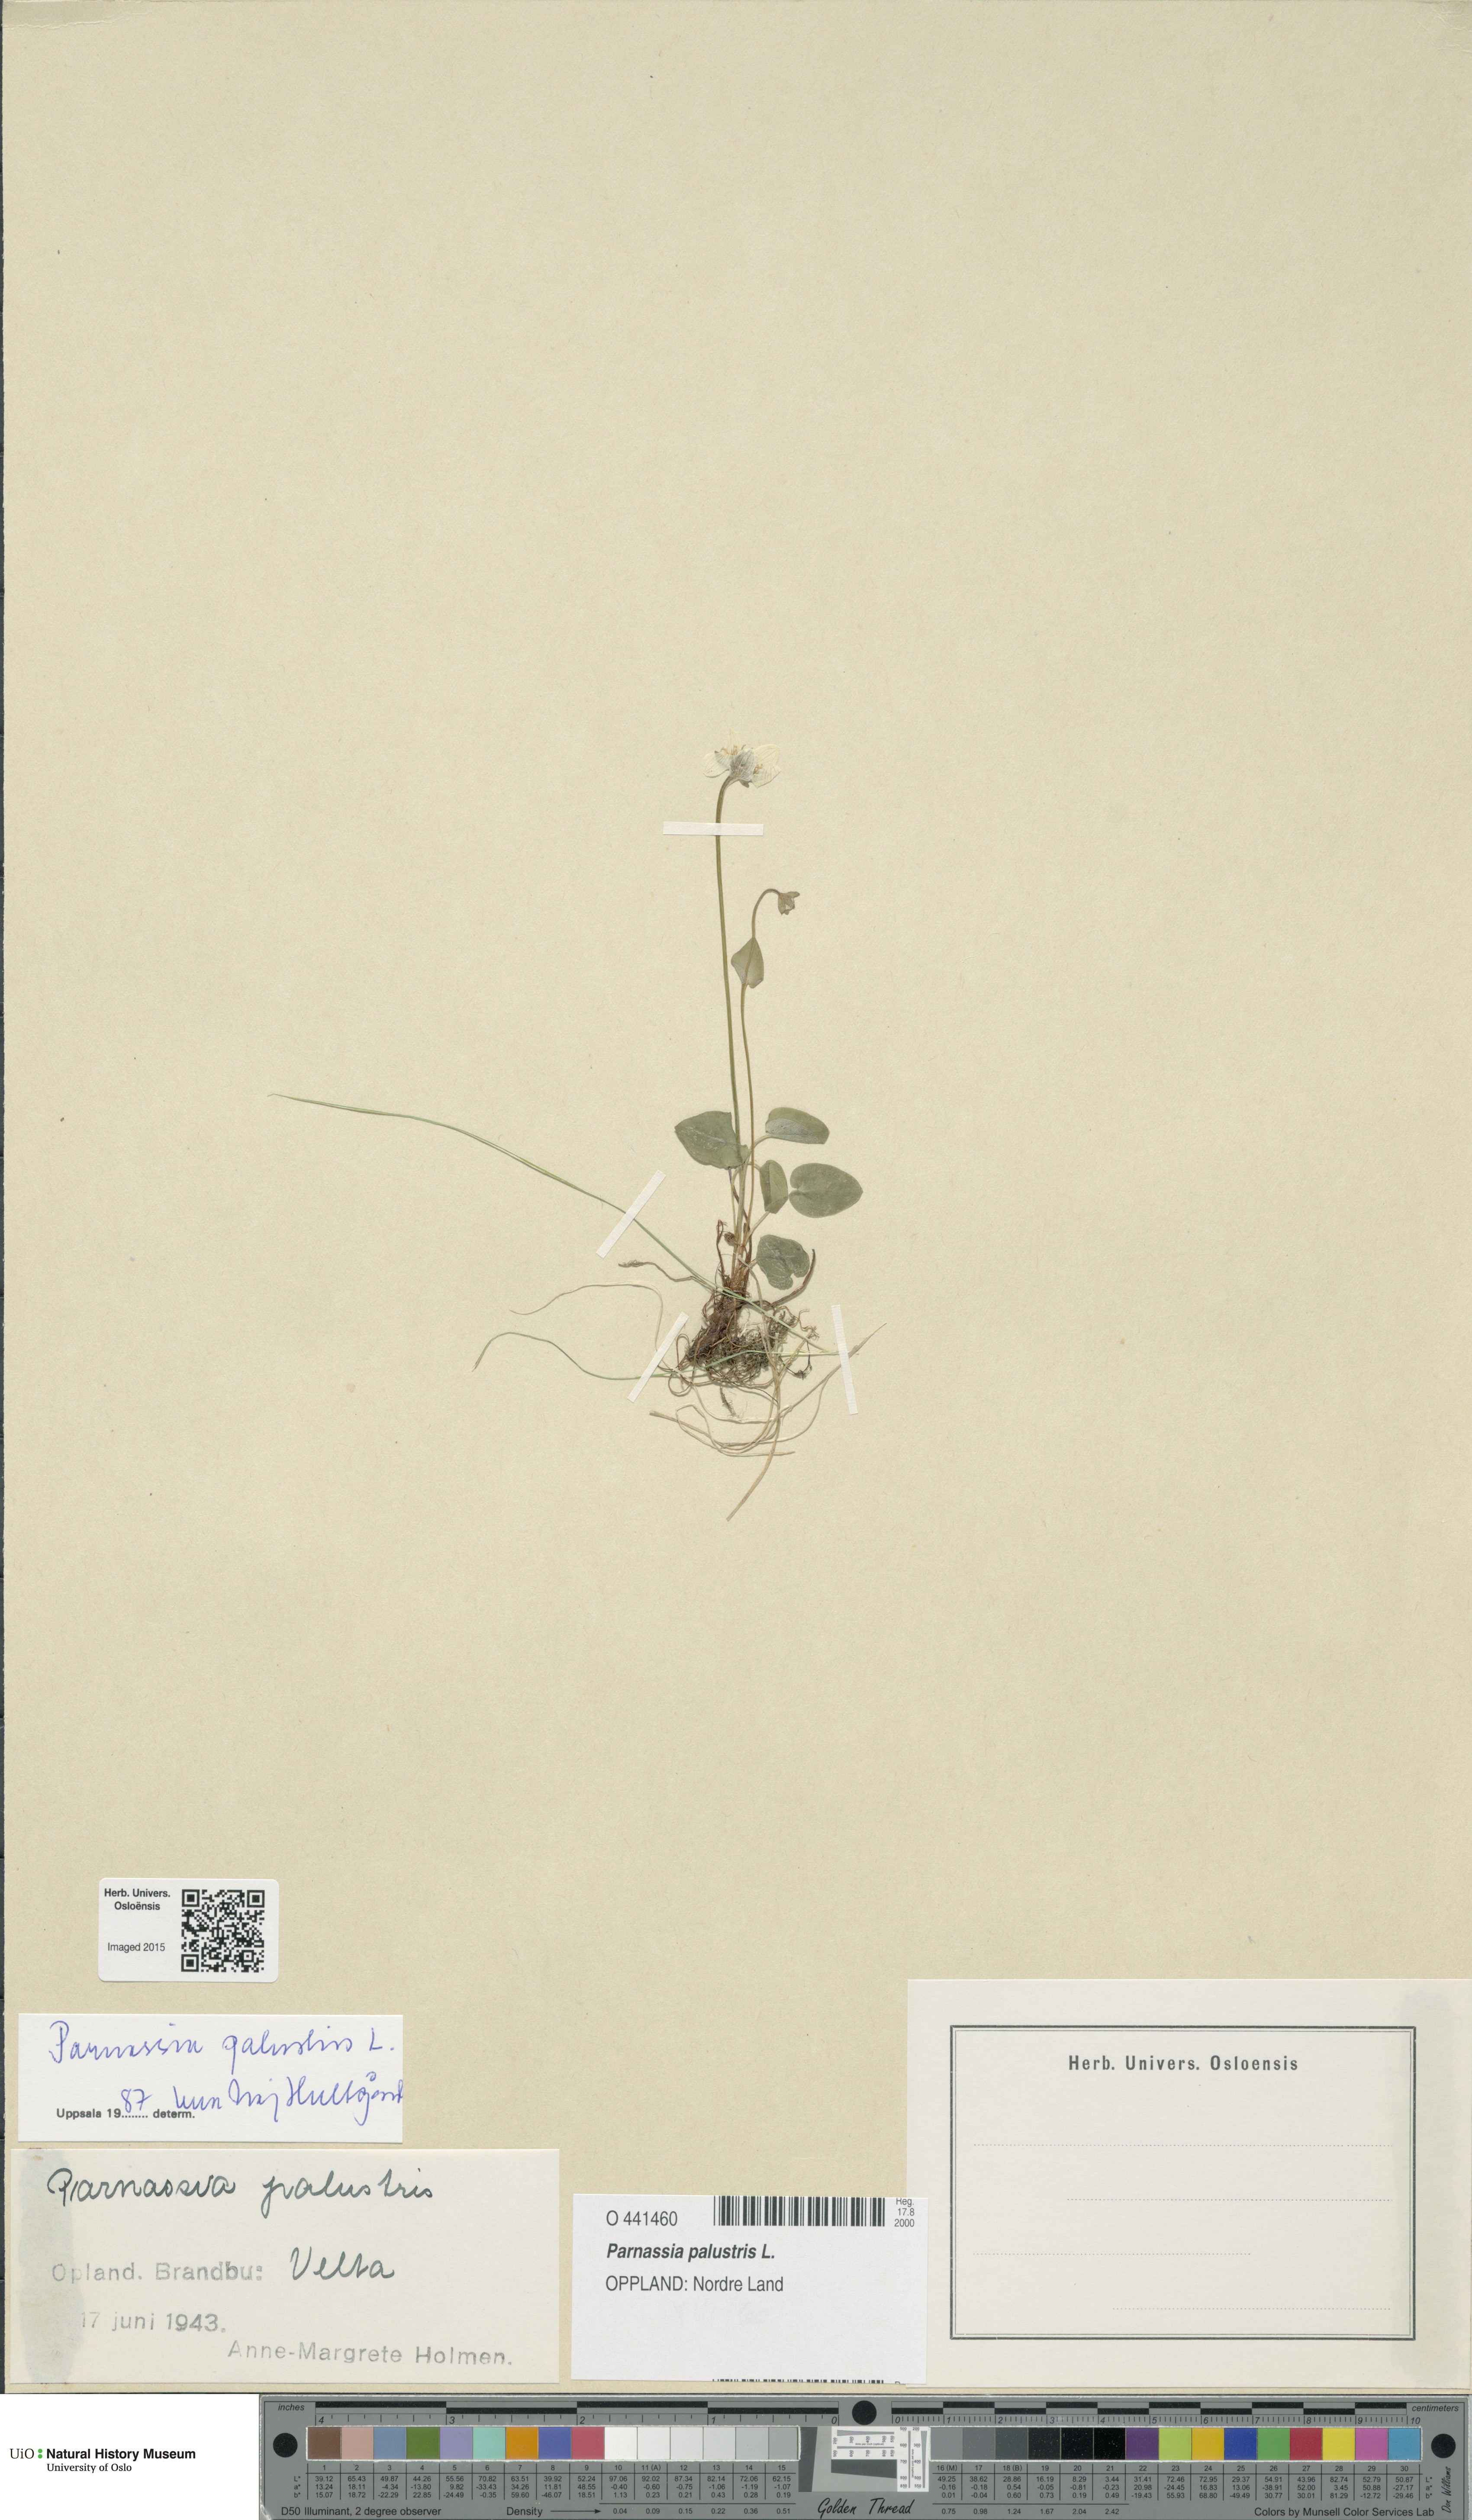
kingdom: Plantae
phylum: Tracheophyta
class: Magnoliopsida
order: Celastrales
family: Parnassiaceae
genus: Parnassia
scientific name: Parnassia palustris
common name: Grass-of-parnassus
